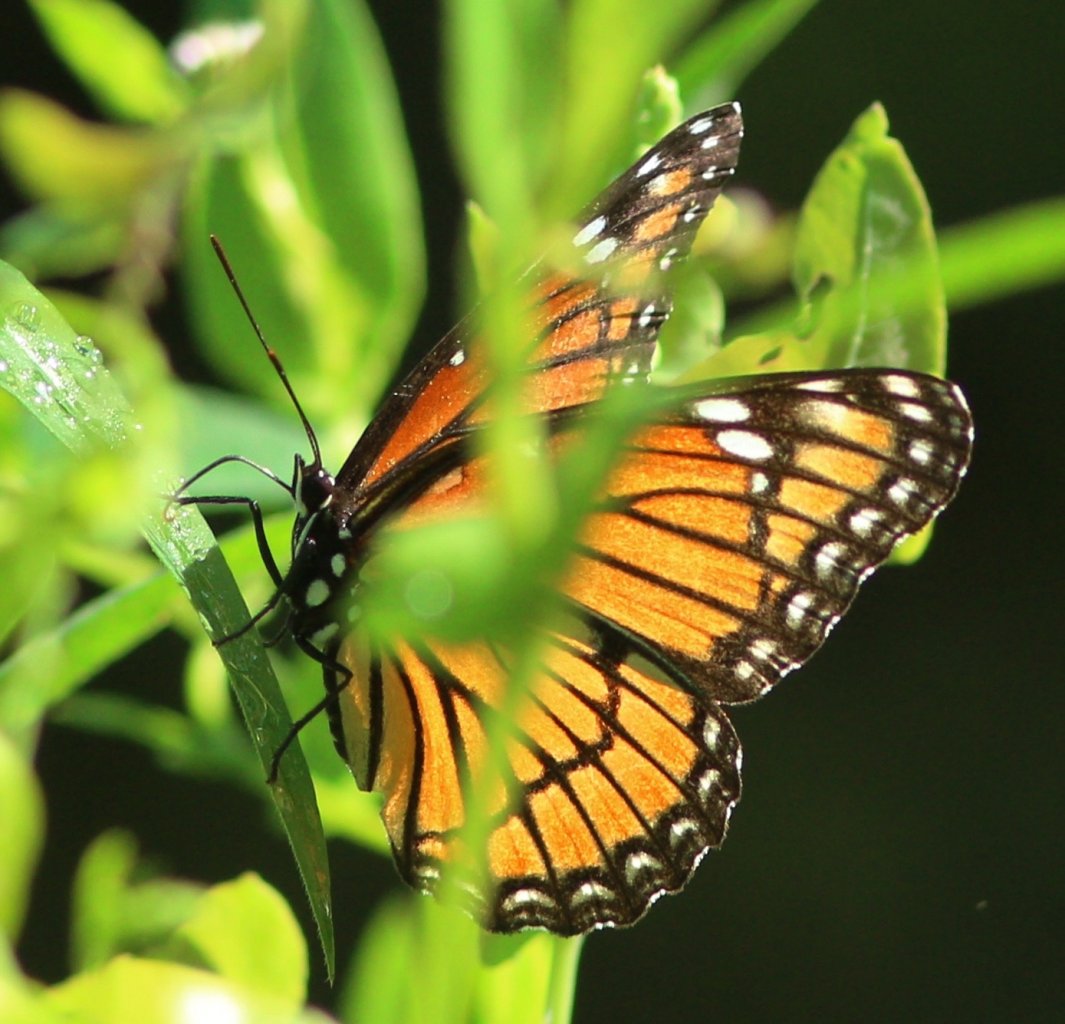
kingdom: Animalia
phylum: Arthropoda
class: Insecta
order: Lepidoptera
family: Nymphalidae
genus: Limenitis
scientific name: Limenitis archippus
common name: Viceroy
